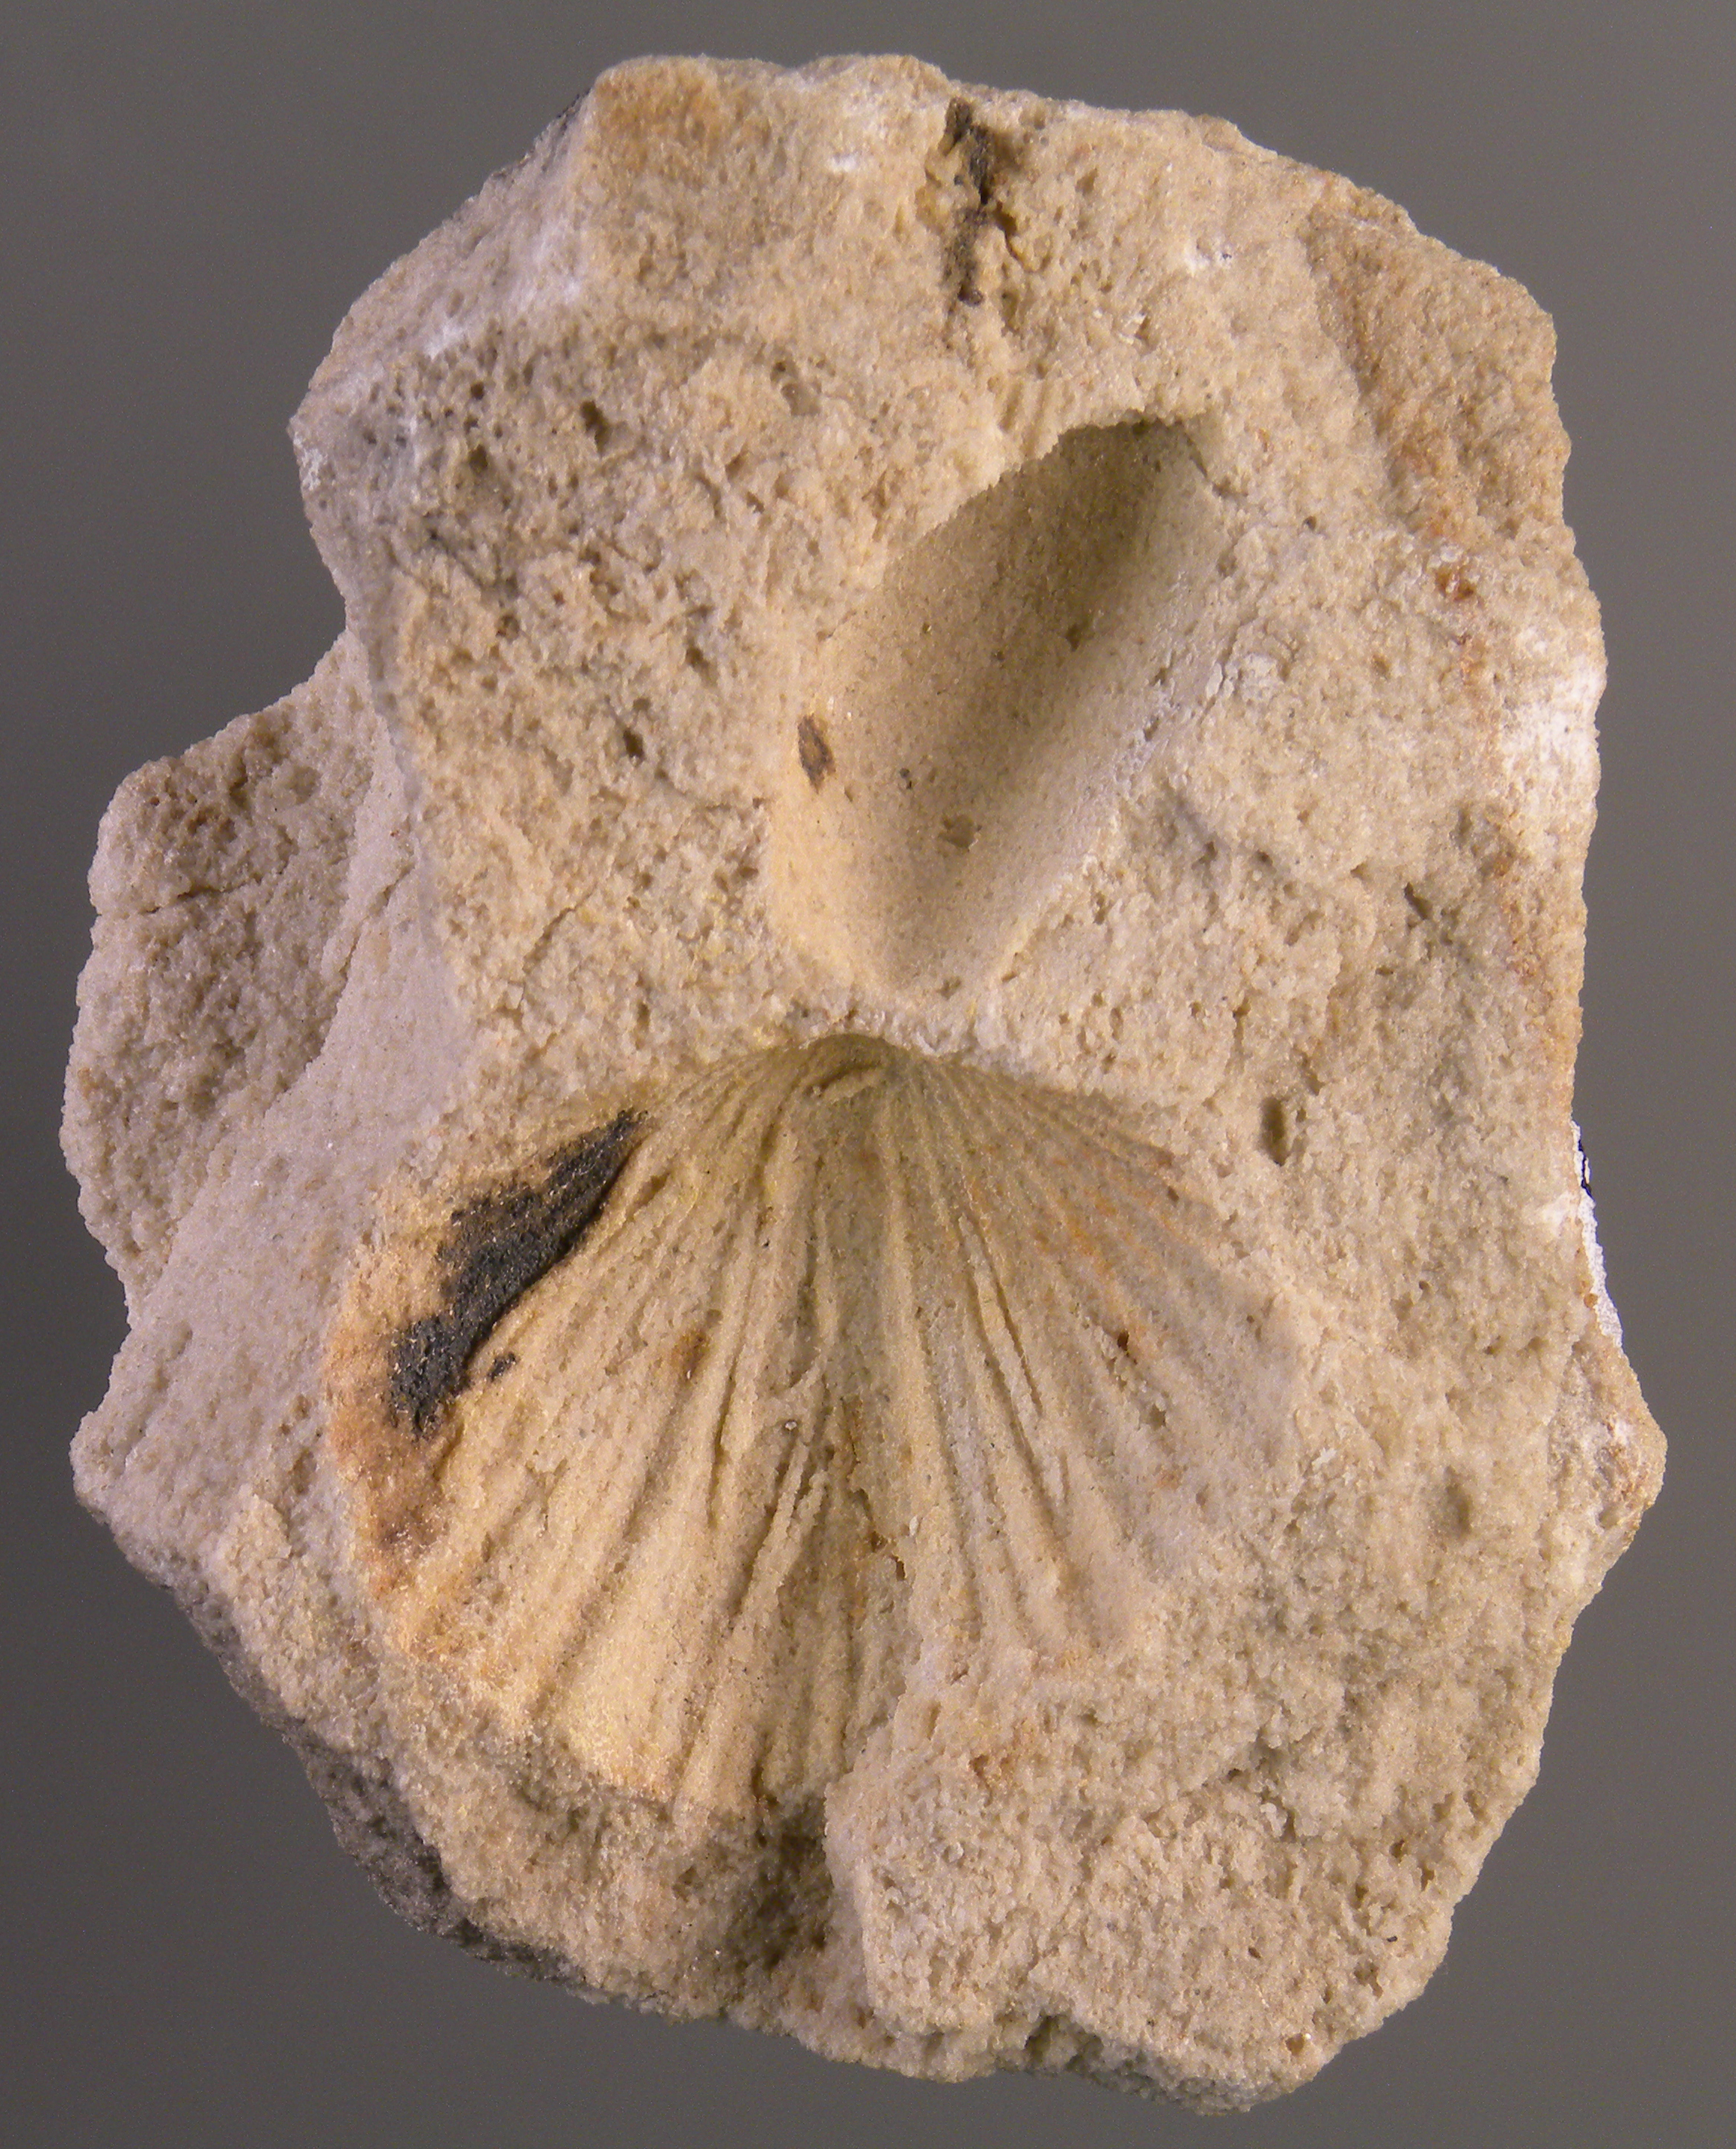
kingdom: Animalia
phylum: Brachiopoda
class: Rhynchonellata
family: Spiriferidae
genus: Spirifer
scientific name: Spirifer
